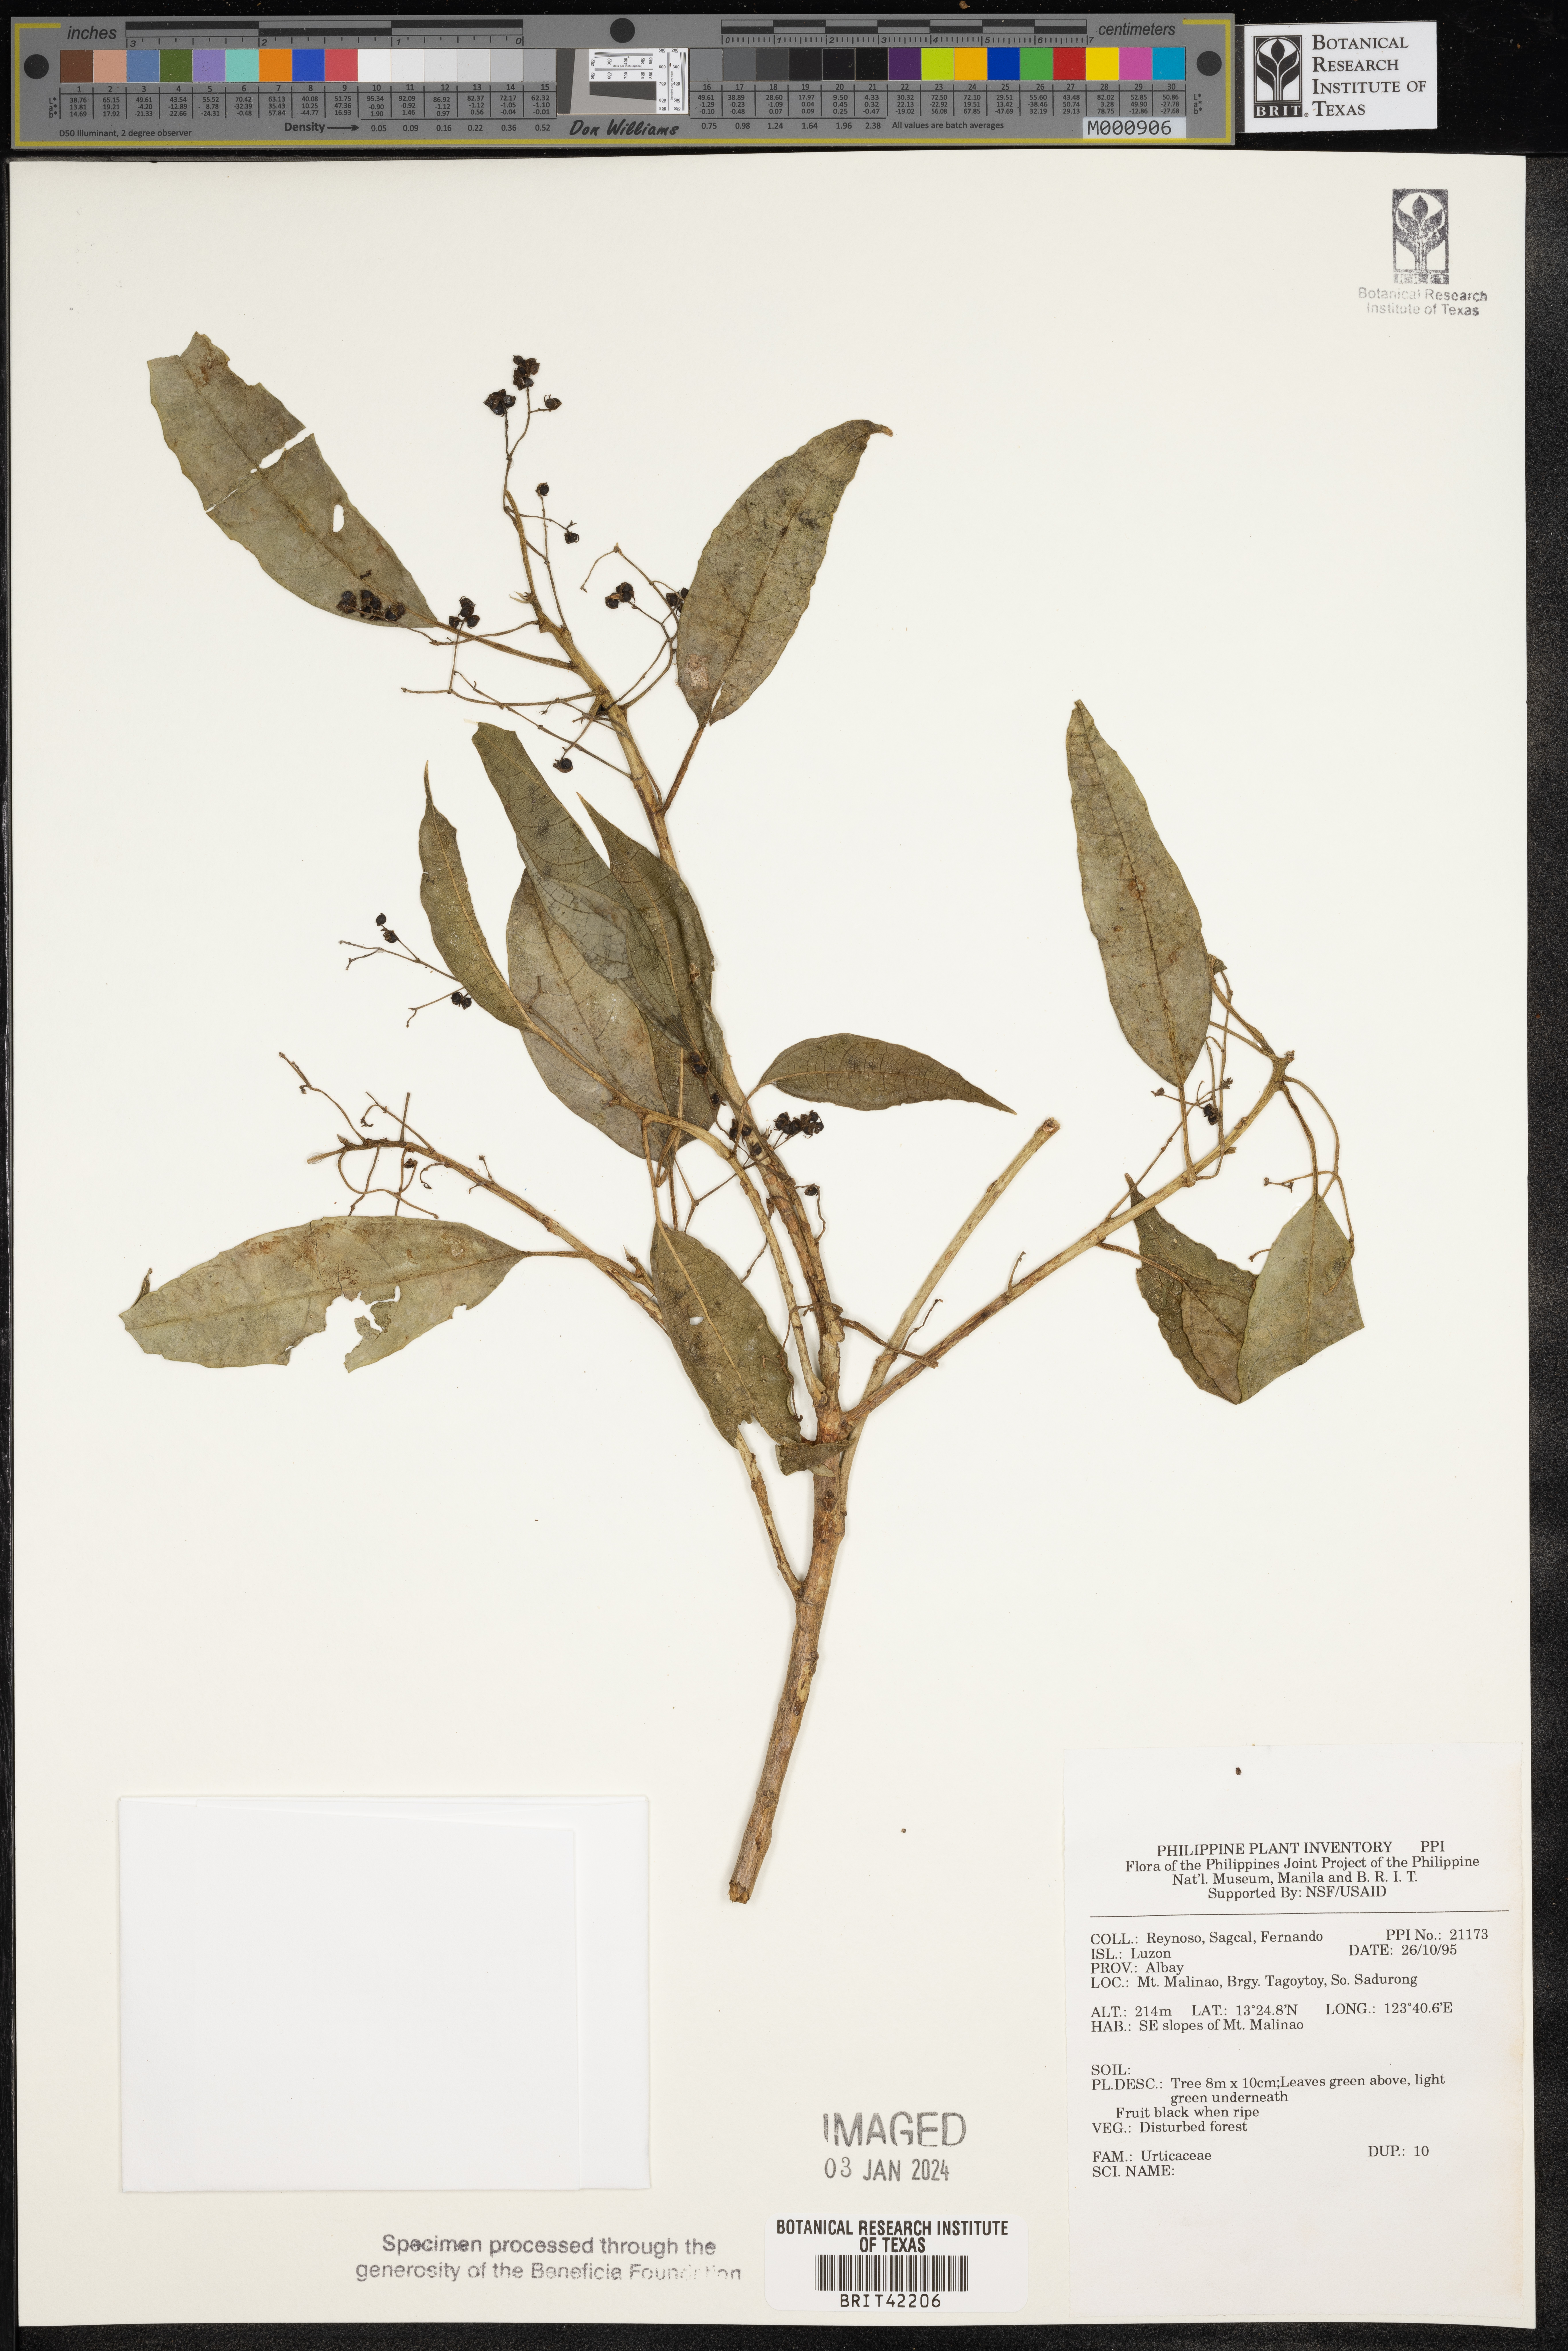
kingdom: Plantae
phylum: Tracheophyta
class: Magnoliopsida
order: Rosales
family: Urticaceae
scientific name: Urticaceae
